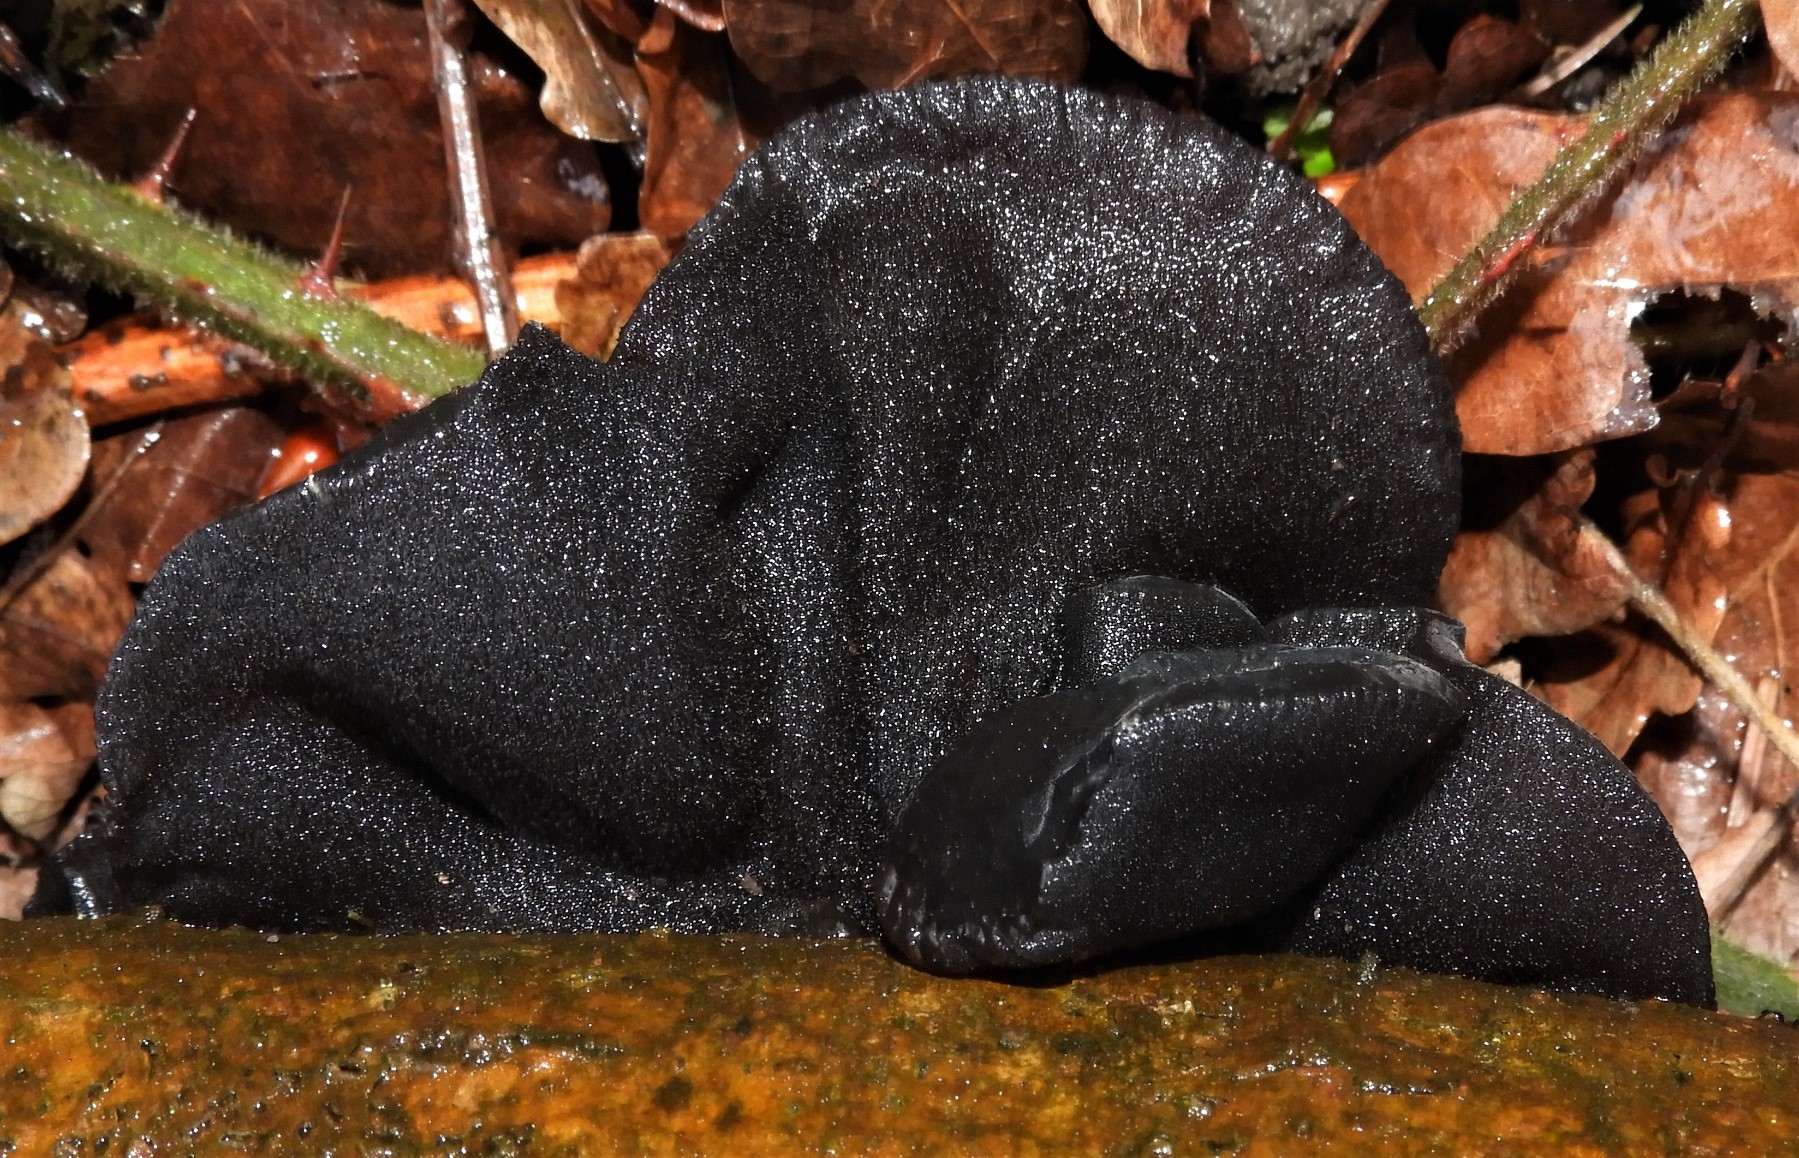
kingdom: Fungi
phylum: Basidiomycota
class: Agaricomycetes
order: Auriculariales
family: Auriculariaceae
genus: Exidia
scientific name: Exidia glandulosa
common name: ege-bævretop
